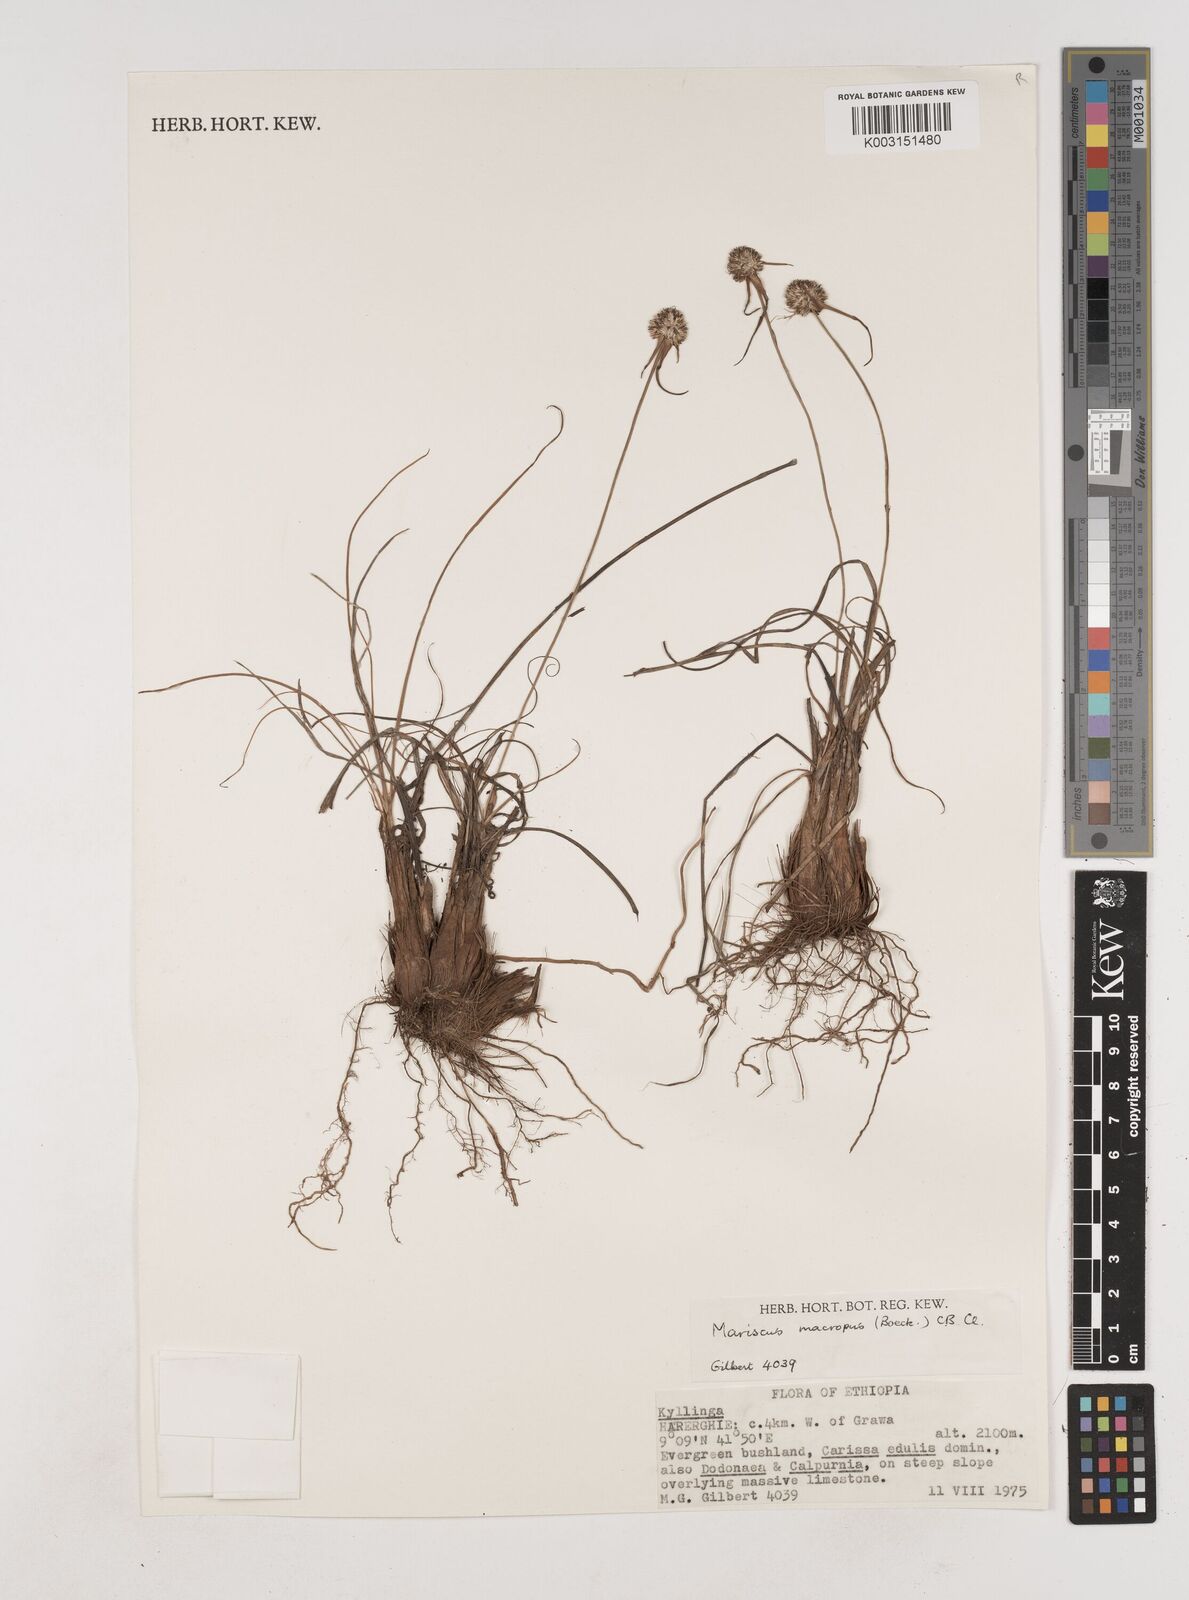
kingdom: Plantae
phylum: Tracheophyta
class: Liliopsida
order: Poales
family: Cyperaceae
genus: Cyperus
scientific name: Cyperus mollipes
